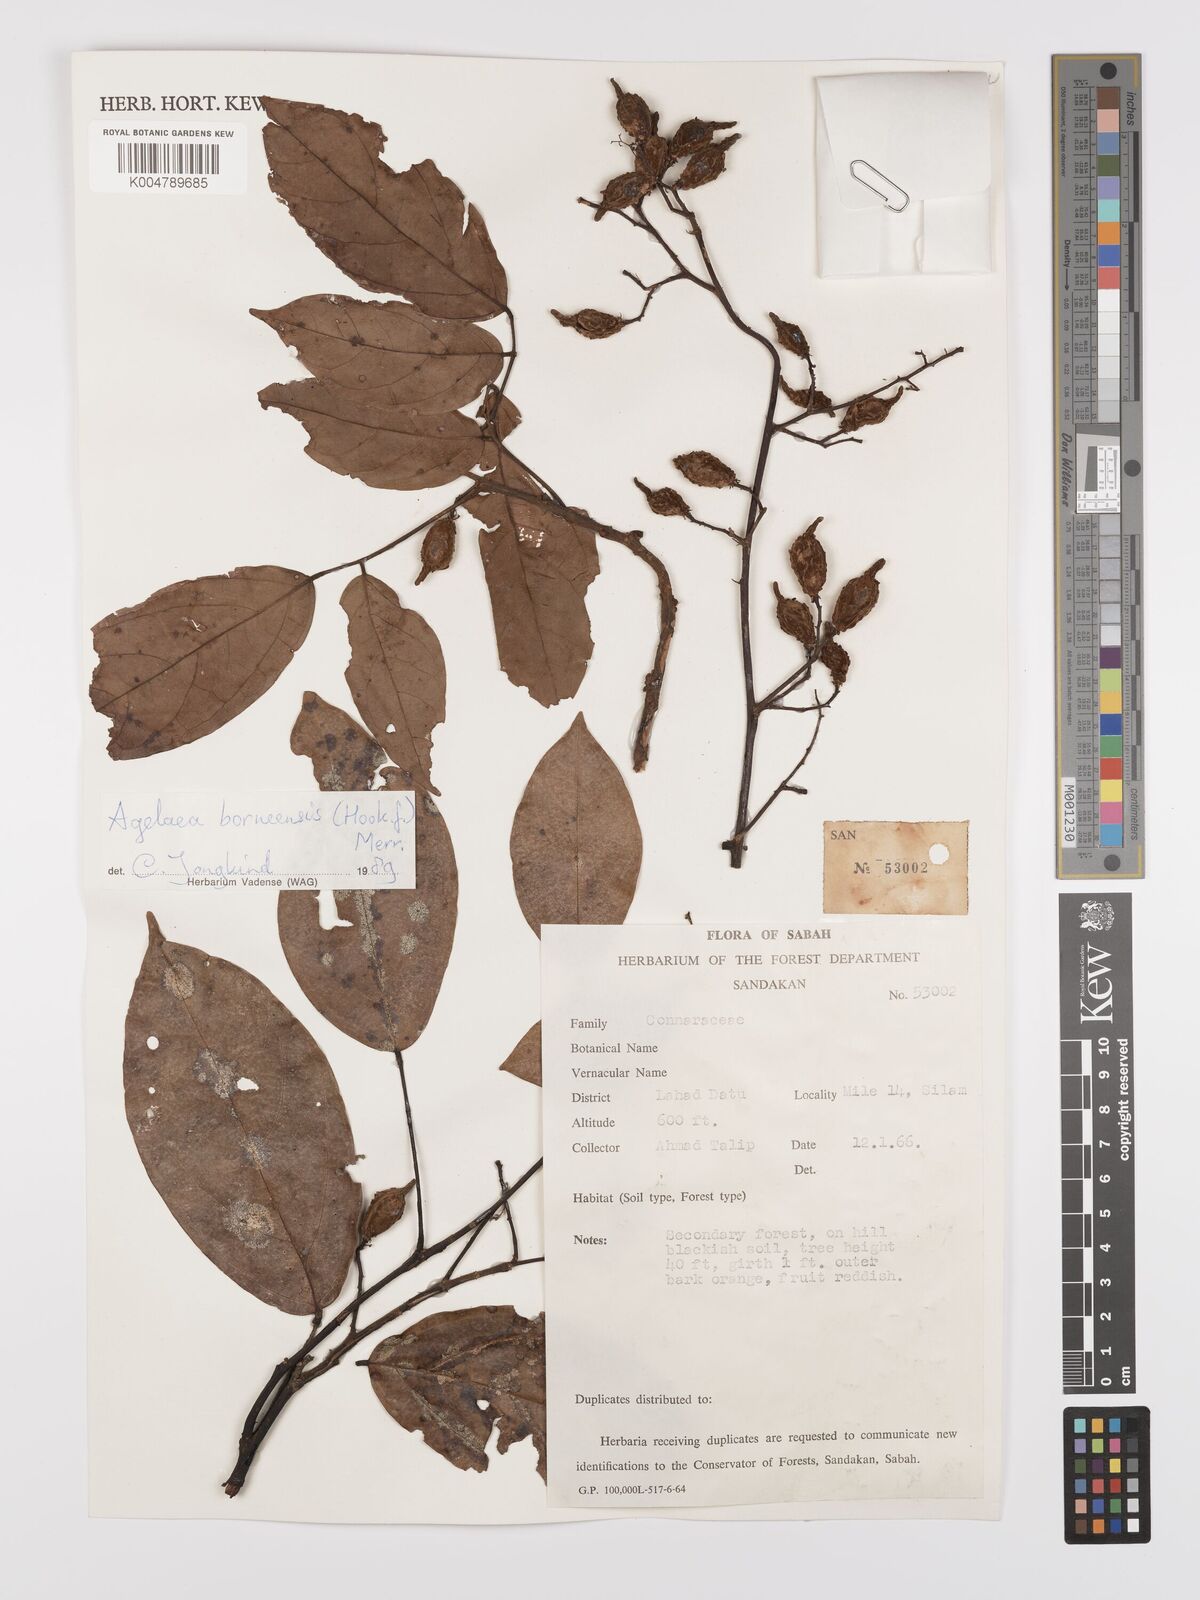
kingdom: Plantae
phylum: Tracheophyta
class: Magnoliopsida
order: Oxalidales
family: Connaraceae
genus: Agelaea
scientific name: Agelaea borneensis
